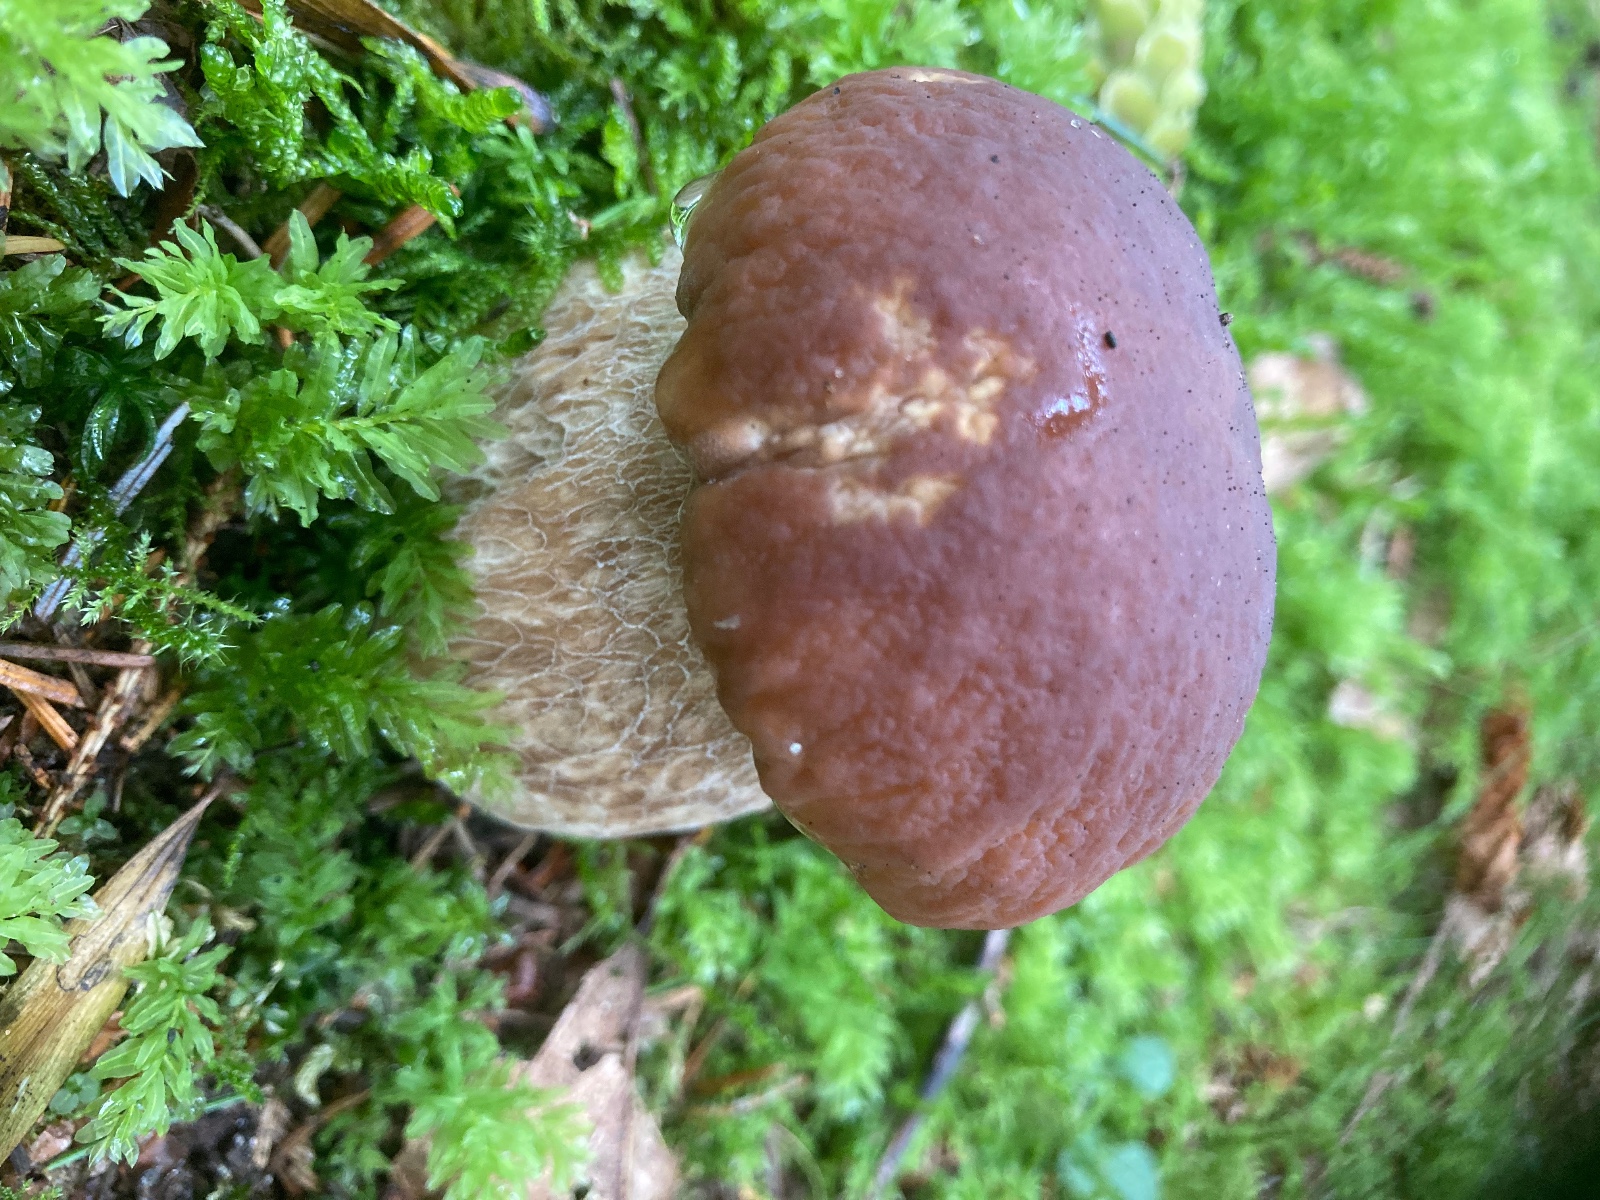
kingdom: Fungi
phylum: Basidiomycota
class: Agaricomycetes
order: Boletales
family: Boletaceae
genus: Boletus
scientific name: Boletus edulis
